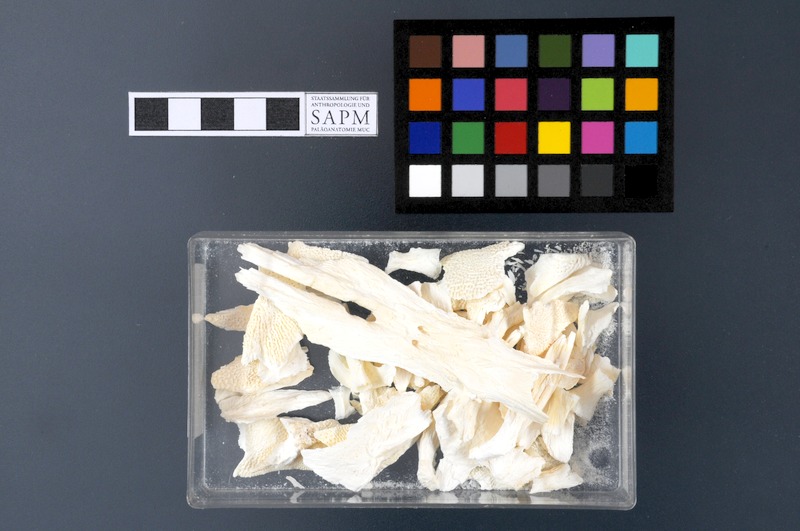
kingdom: Animalia
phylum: Chordata
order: Acipenseriformes
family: Acipenseridae
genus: Acipenser
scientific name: Acipenser gueldenstaedtii
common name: Russian sturgeon
